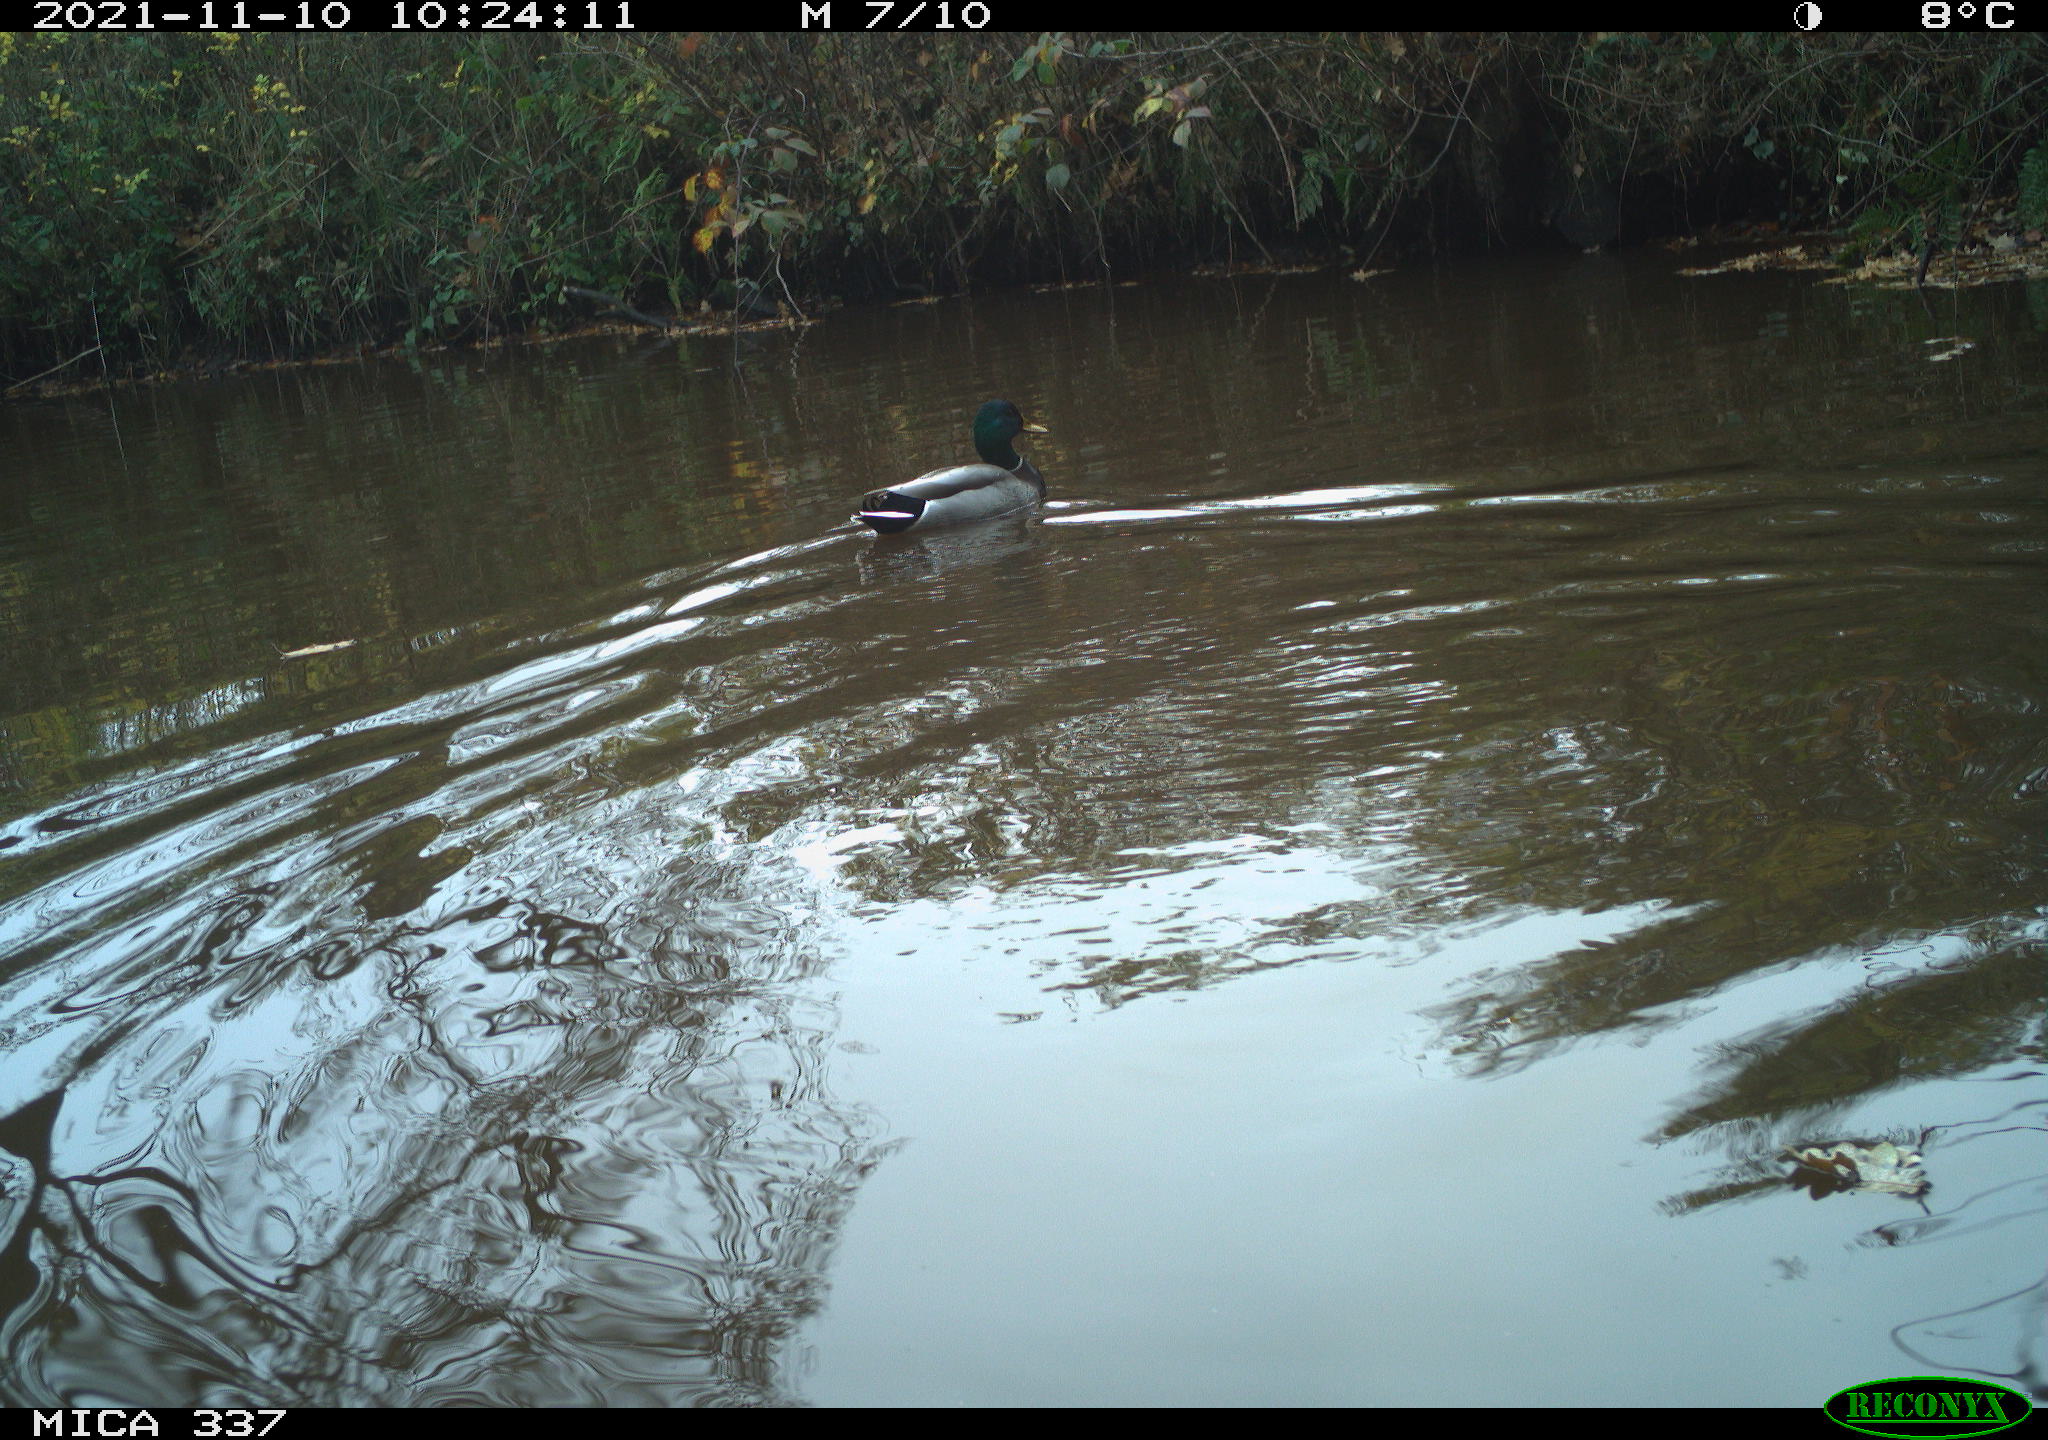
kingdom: Animalia
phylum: Chordata
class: Aves
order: Anseriformes
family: Anatidae
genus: Anas
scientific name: Anas platyrhynchos
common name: Mallard
